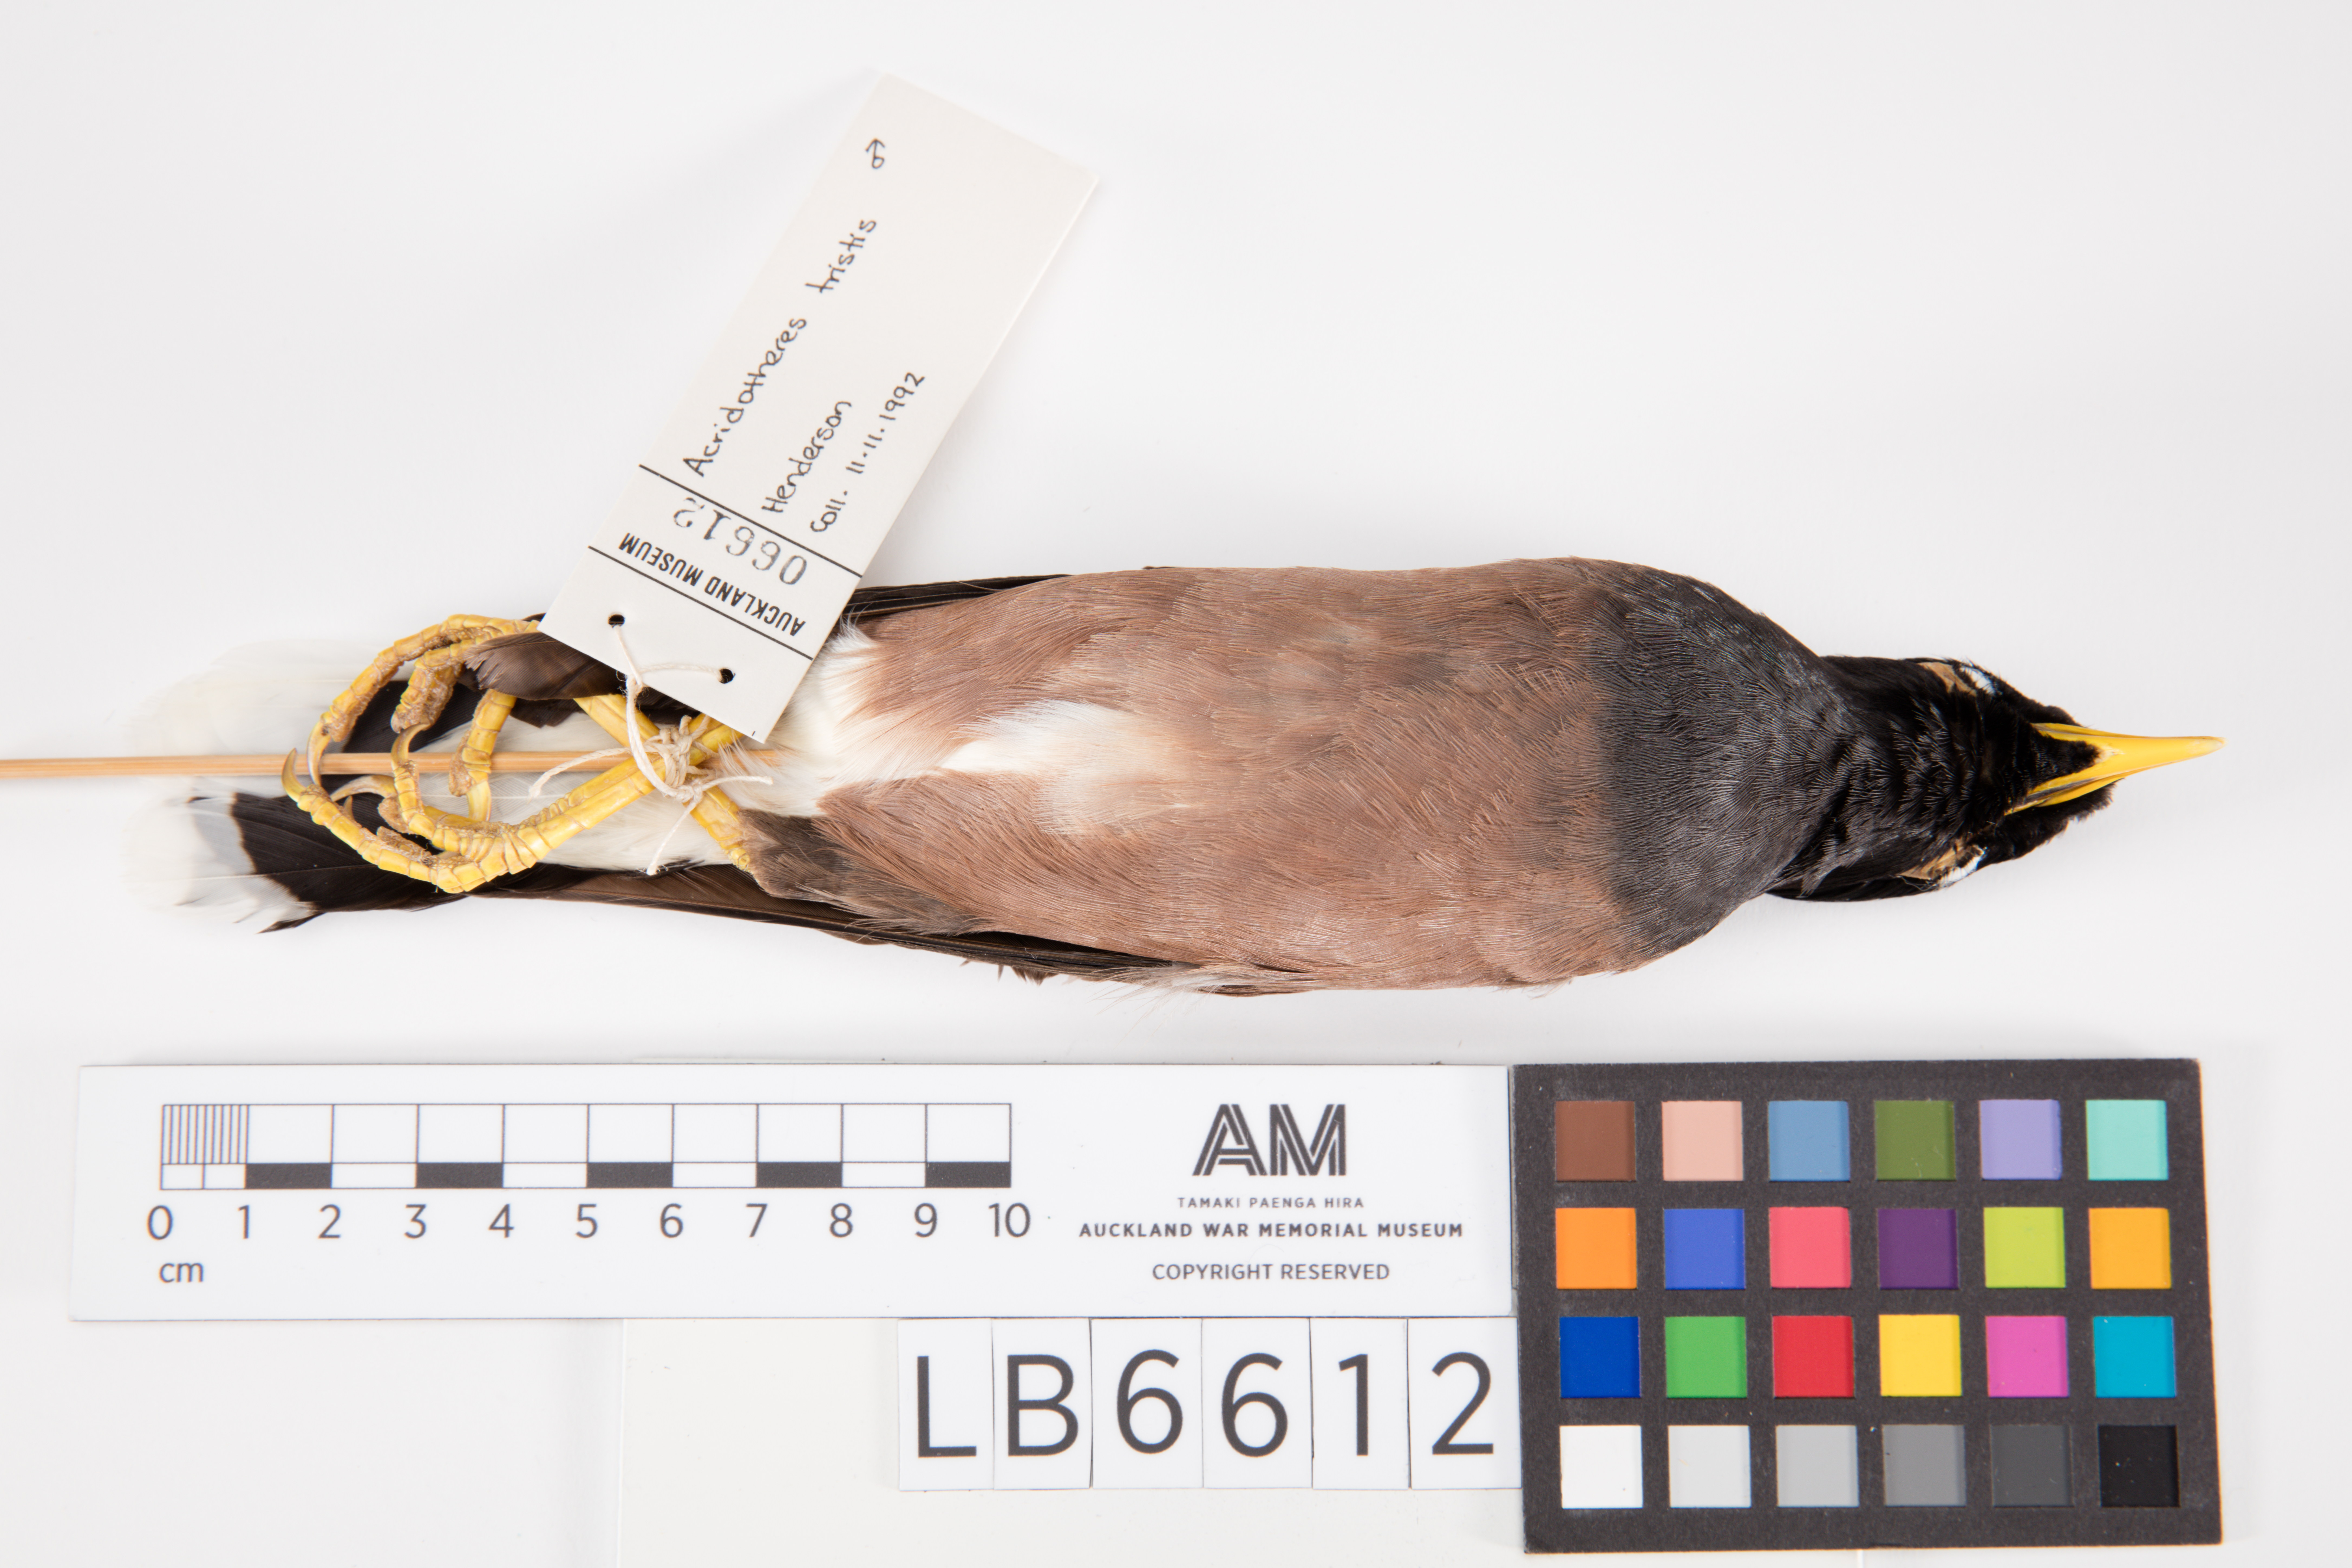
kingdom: Animalia
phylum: Chordata
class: Aves
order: Passeriformes
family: Sturnidae
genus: Acridotheres
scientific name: Acridotheres tristis
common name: Common myna
